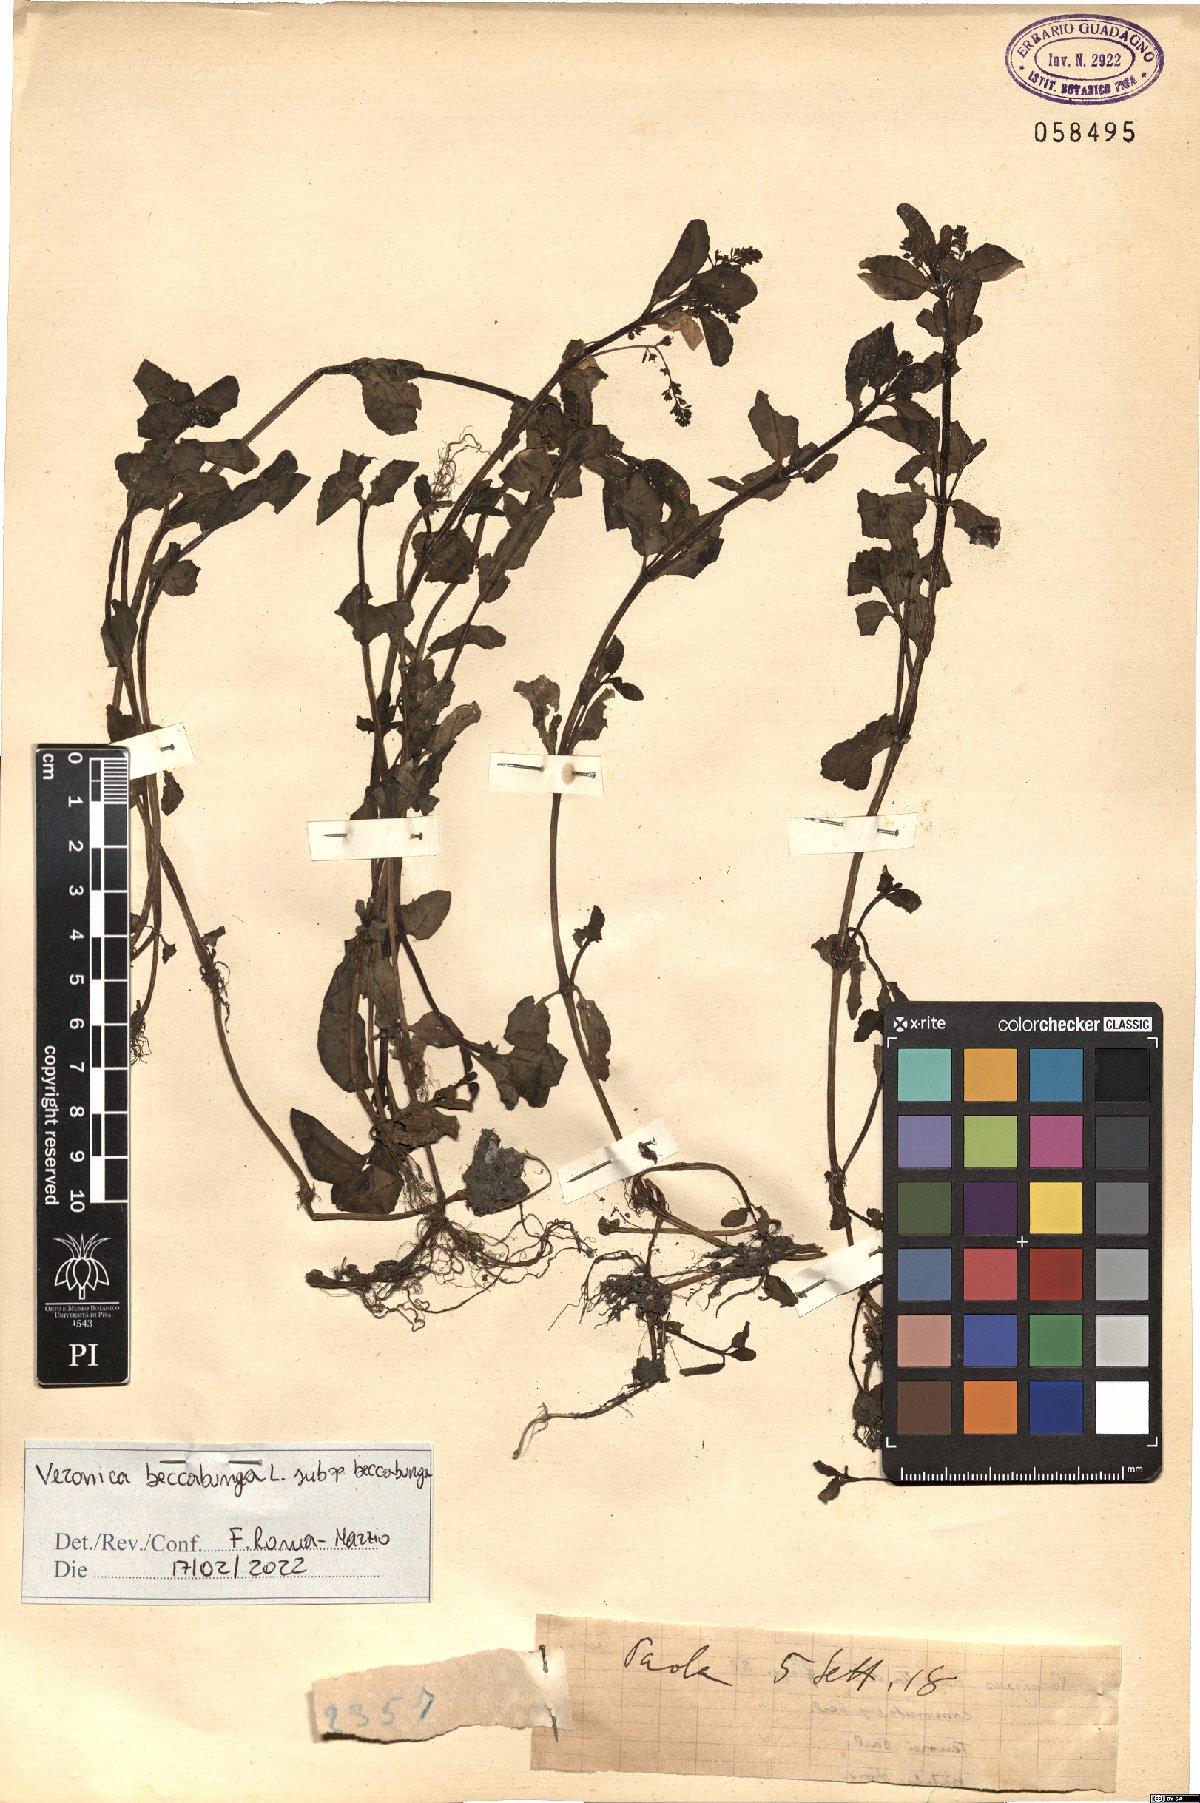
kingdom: Plantae
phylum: Tracheophyta
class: Magnoliopsida
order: Lamiales
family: Plantaginaceae
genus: Veronica
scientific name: Veronica beccabunga
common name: Brooklime
